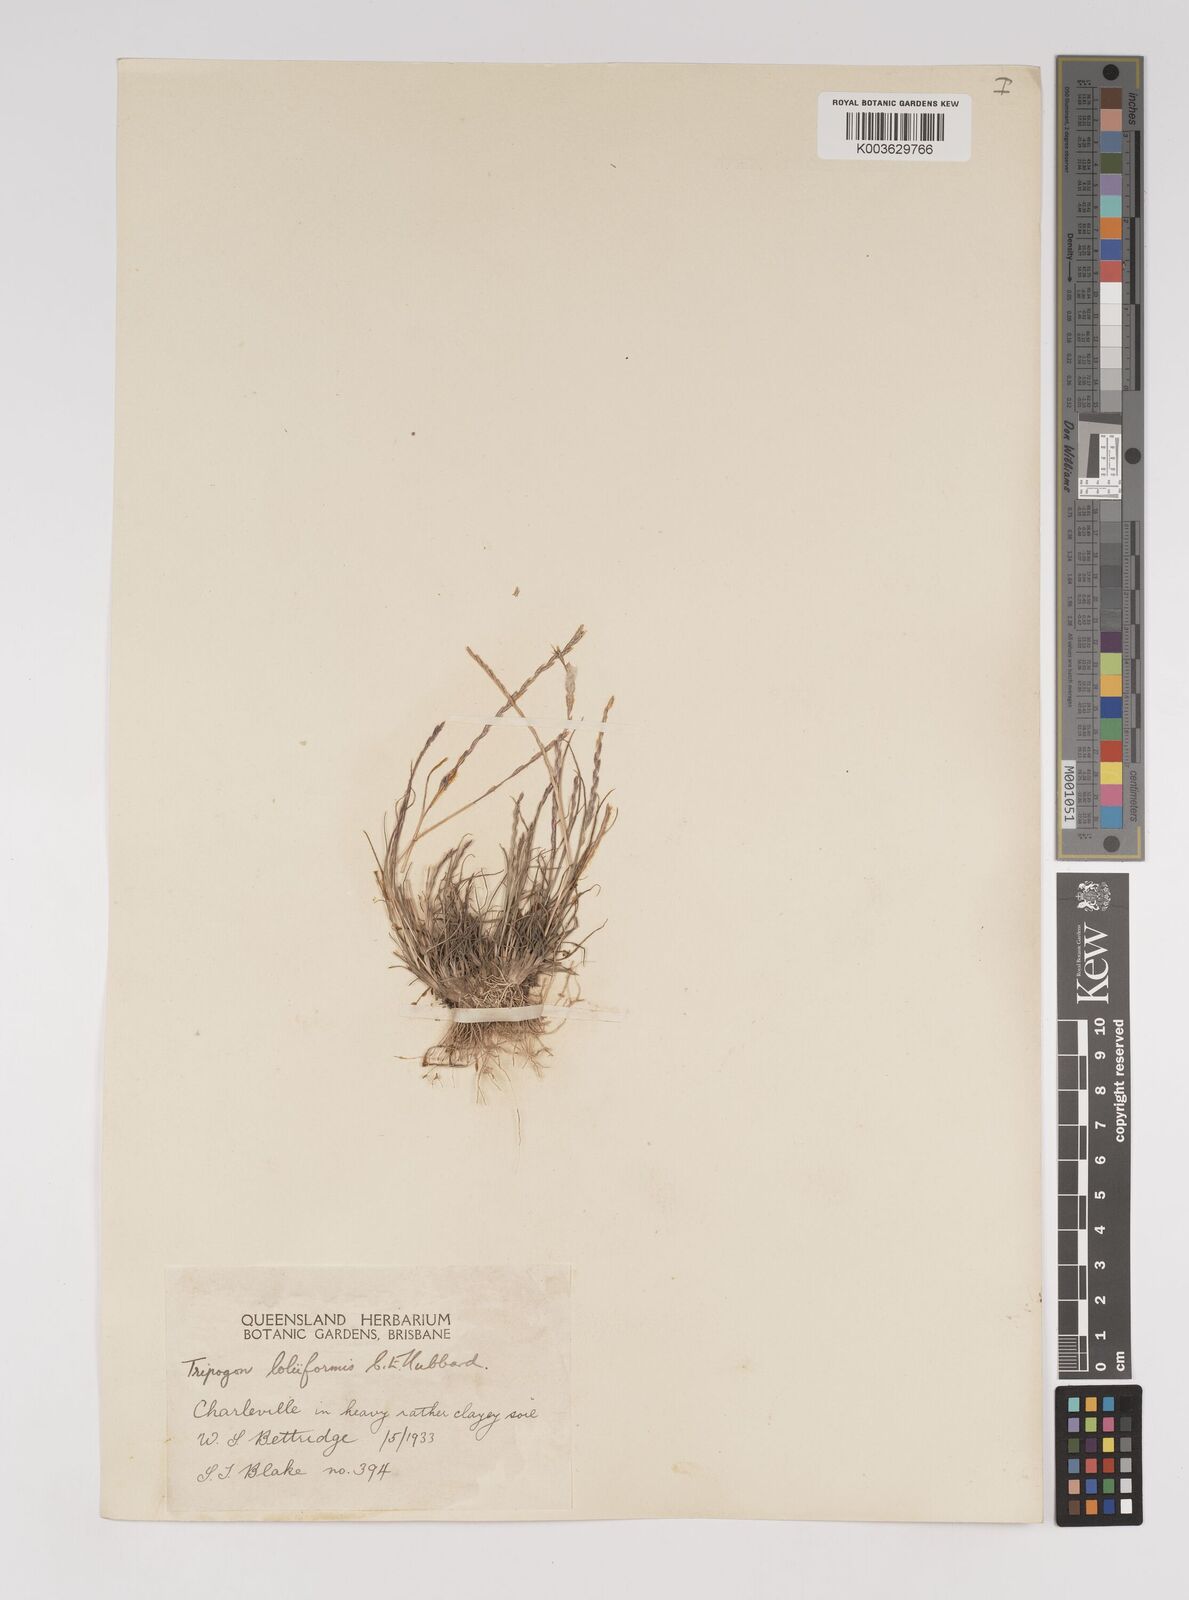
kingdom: Plantae
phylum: Tracheophyta
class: Liliopsida
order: Poales
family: Poaceae
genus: Tripogonella
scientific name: Tripogonella loliiformis
